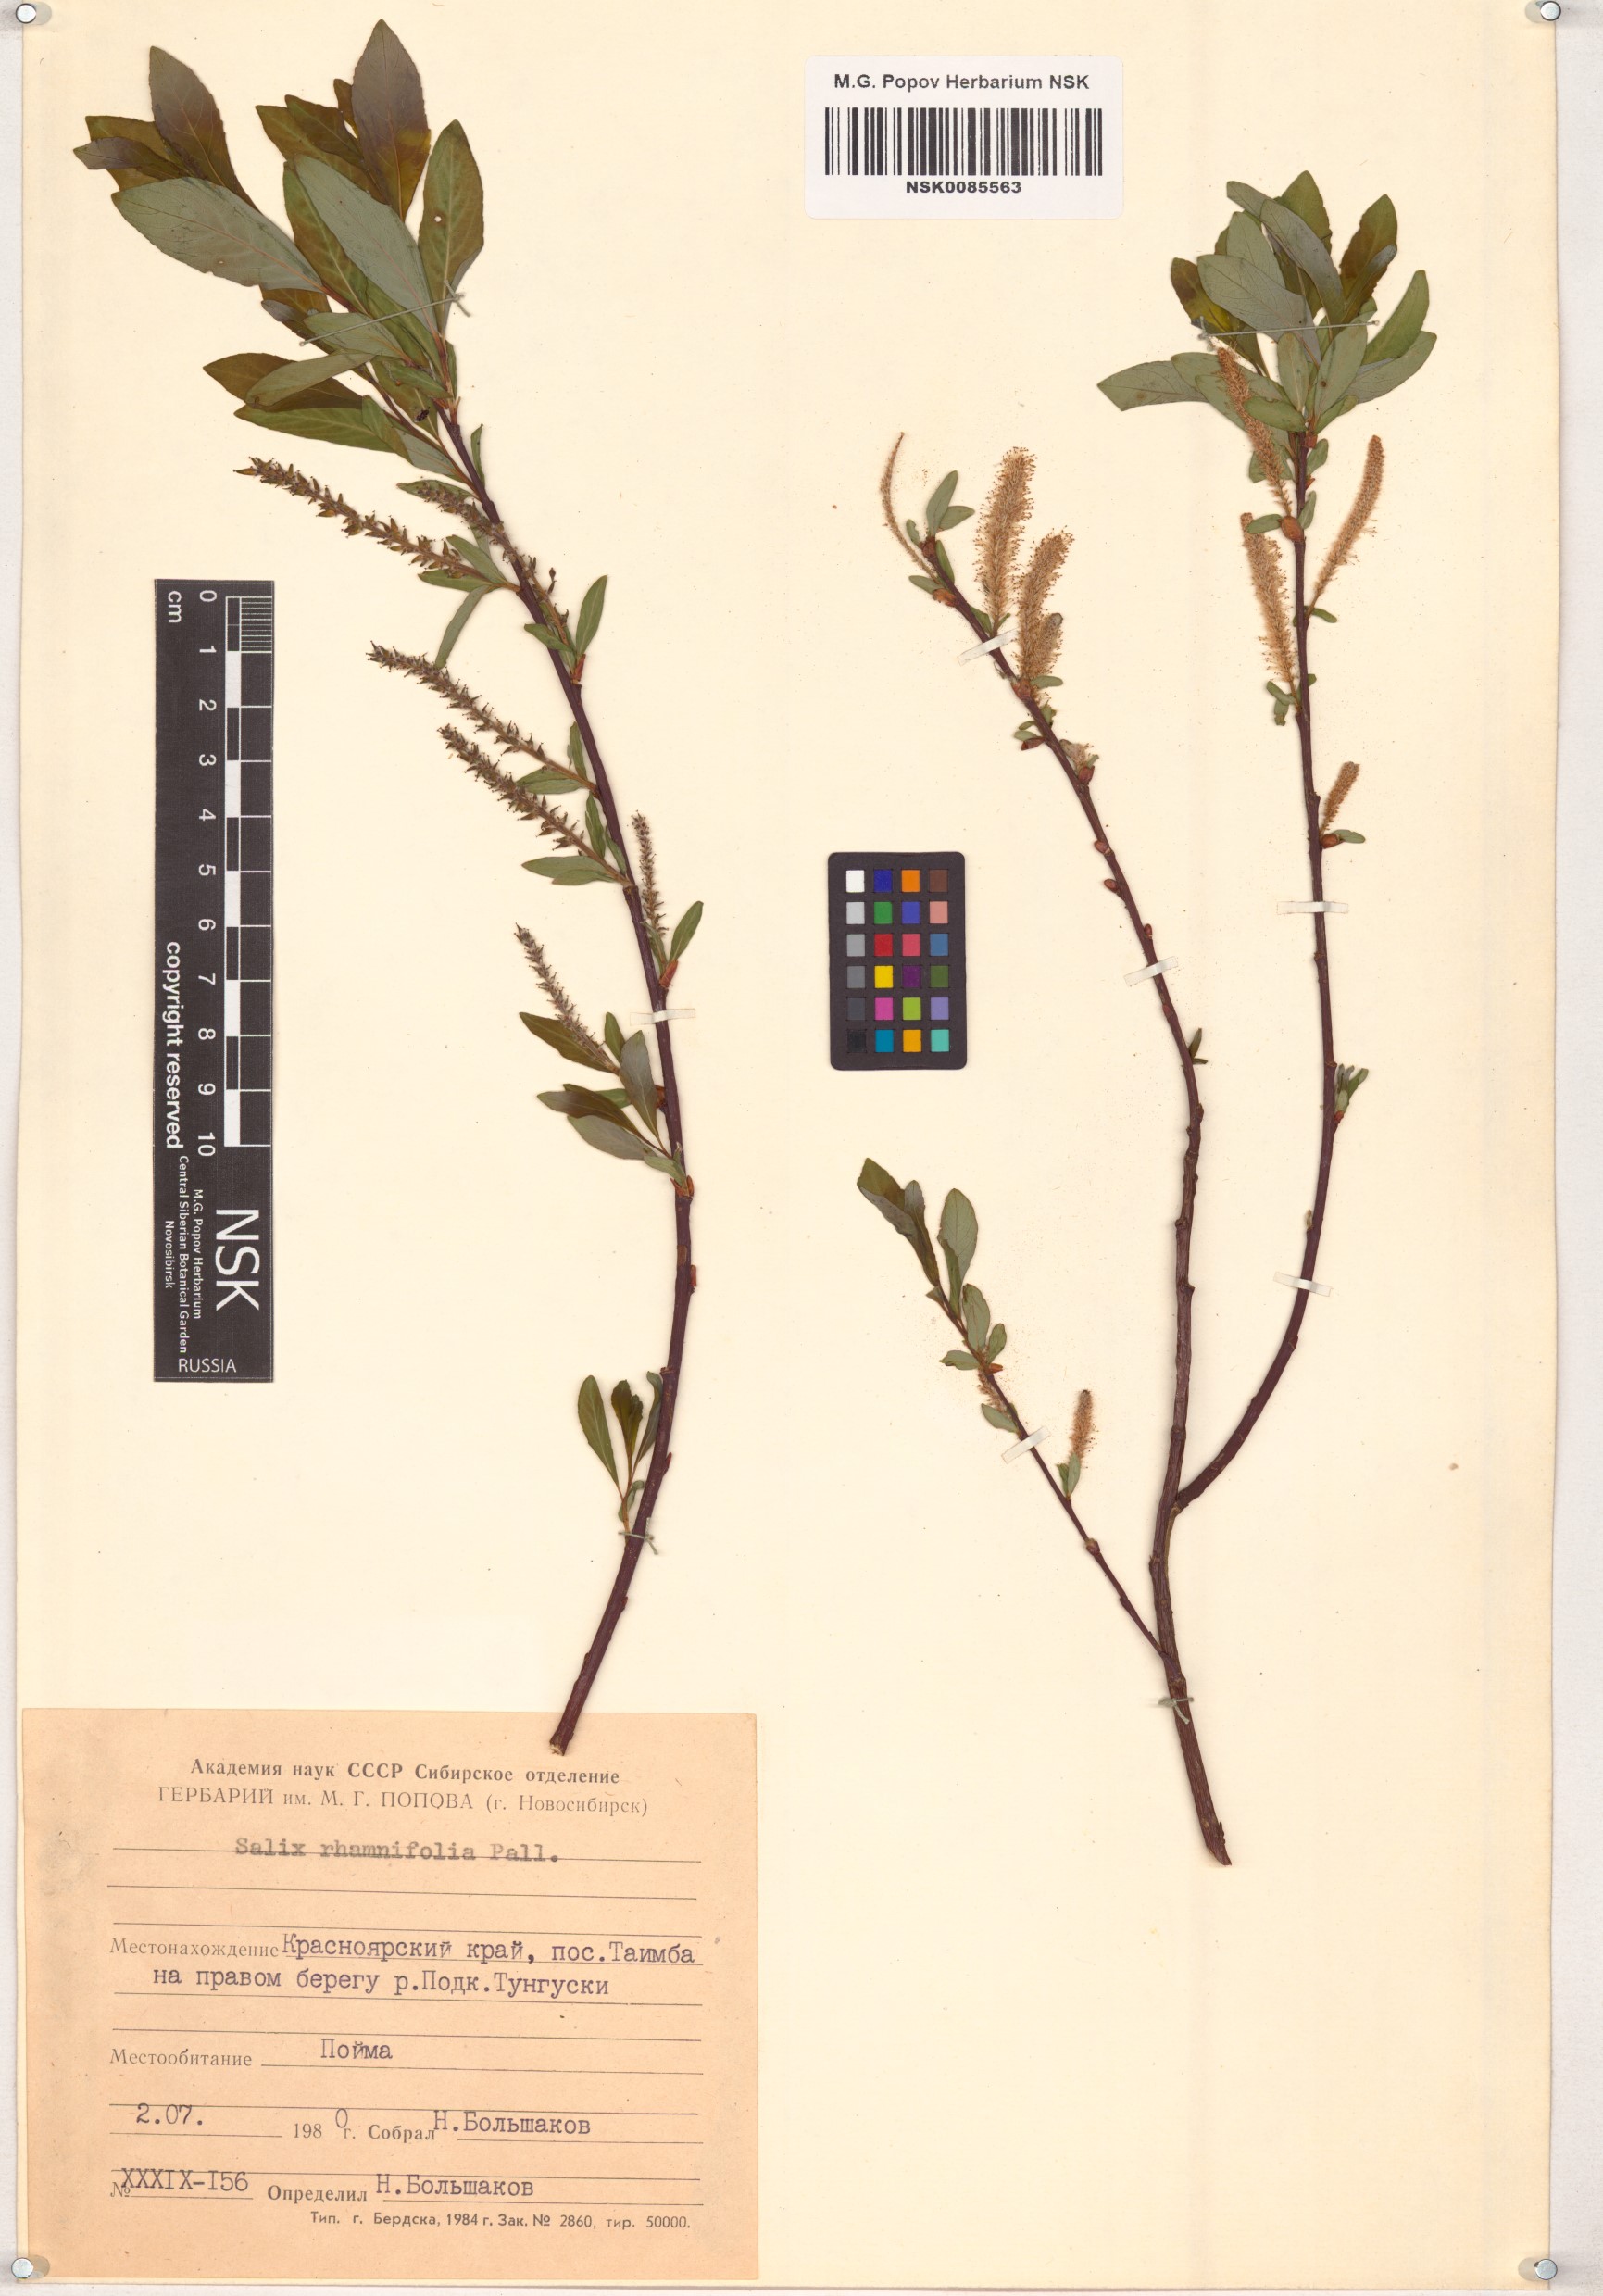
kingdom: Plantae
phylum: Tracheophyta
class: Magnoliopsida
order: Malpighiales
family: Salicaceae
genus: Salix
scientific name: Salix rhamnifolia
